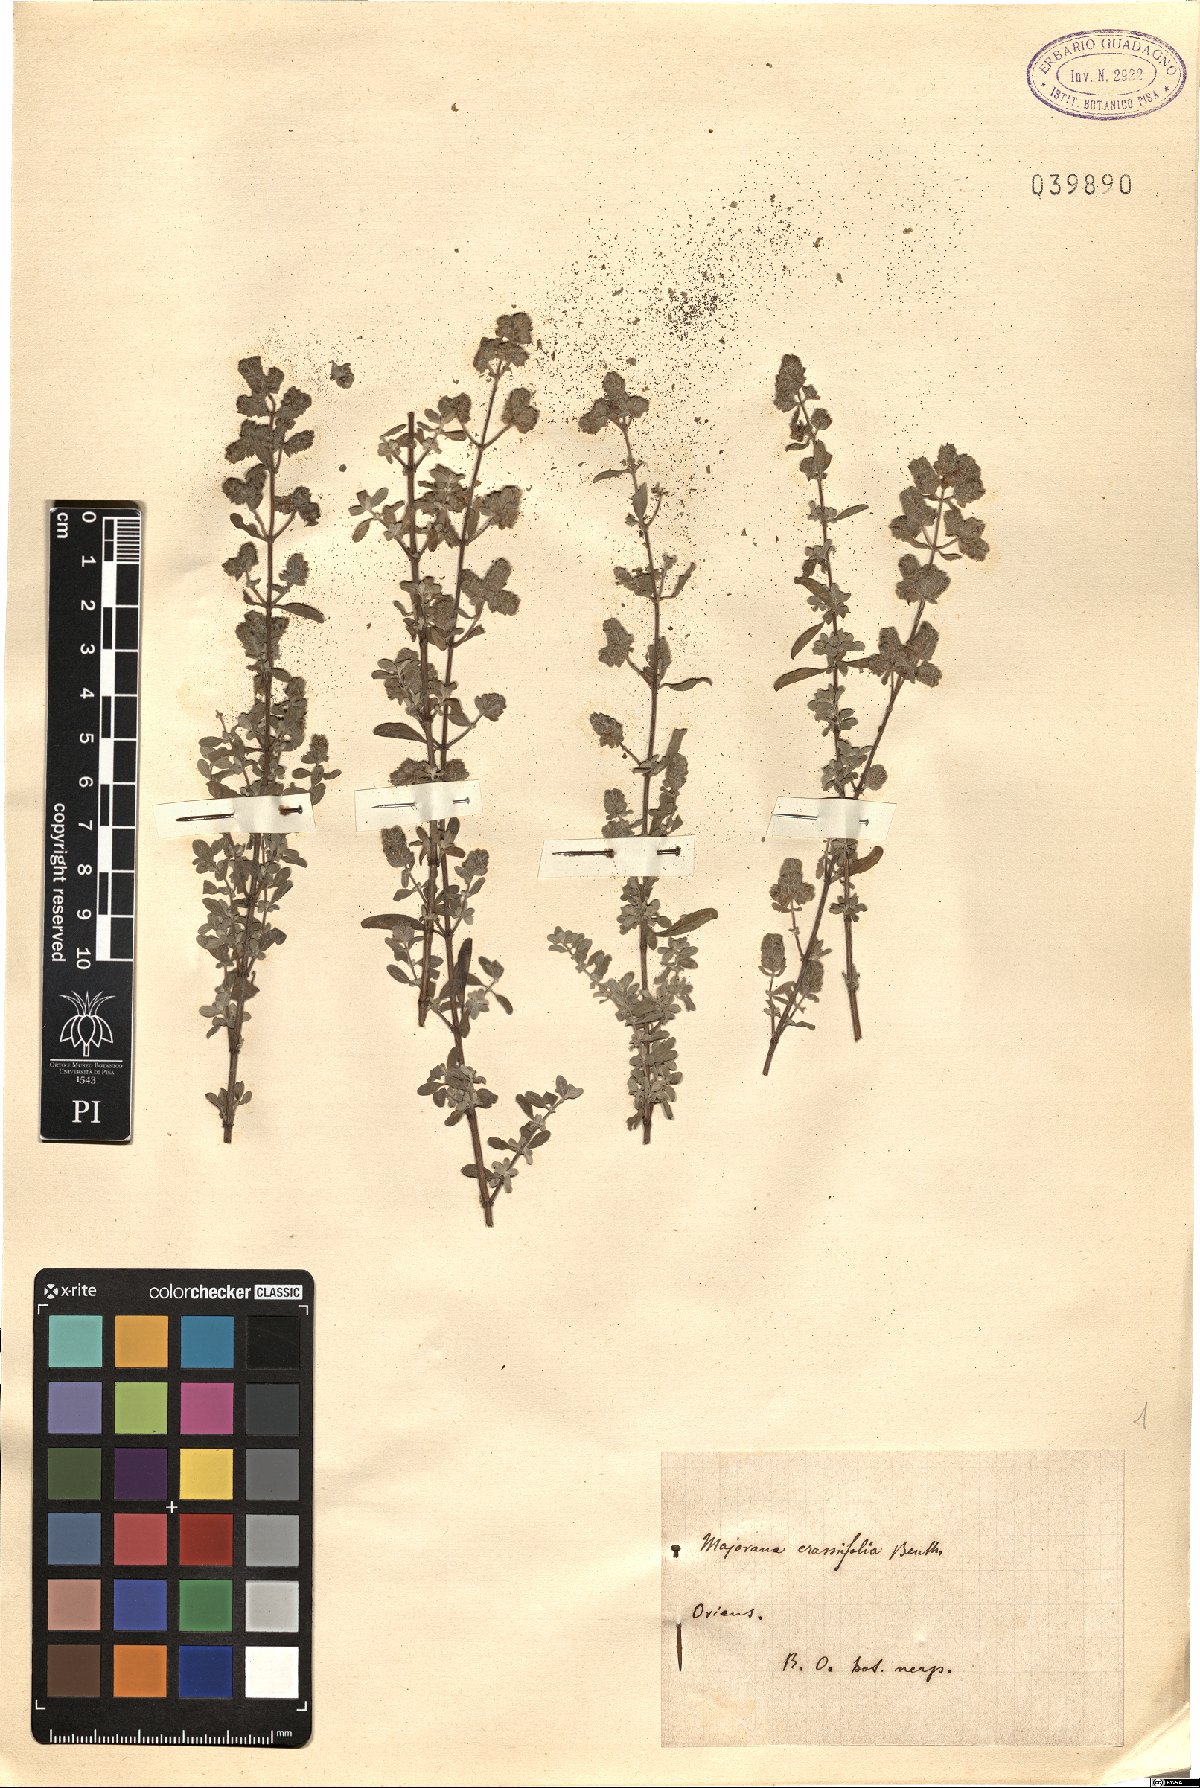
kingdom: Plantae
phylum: Tracheophyta
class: Magnoliopsida
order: Lamiales
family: Lamiaceae
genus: Origanum
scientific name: Origanum syriacum
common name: Biblical-hyssop
